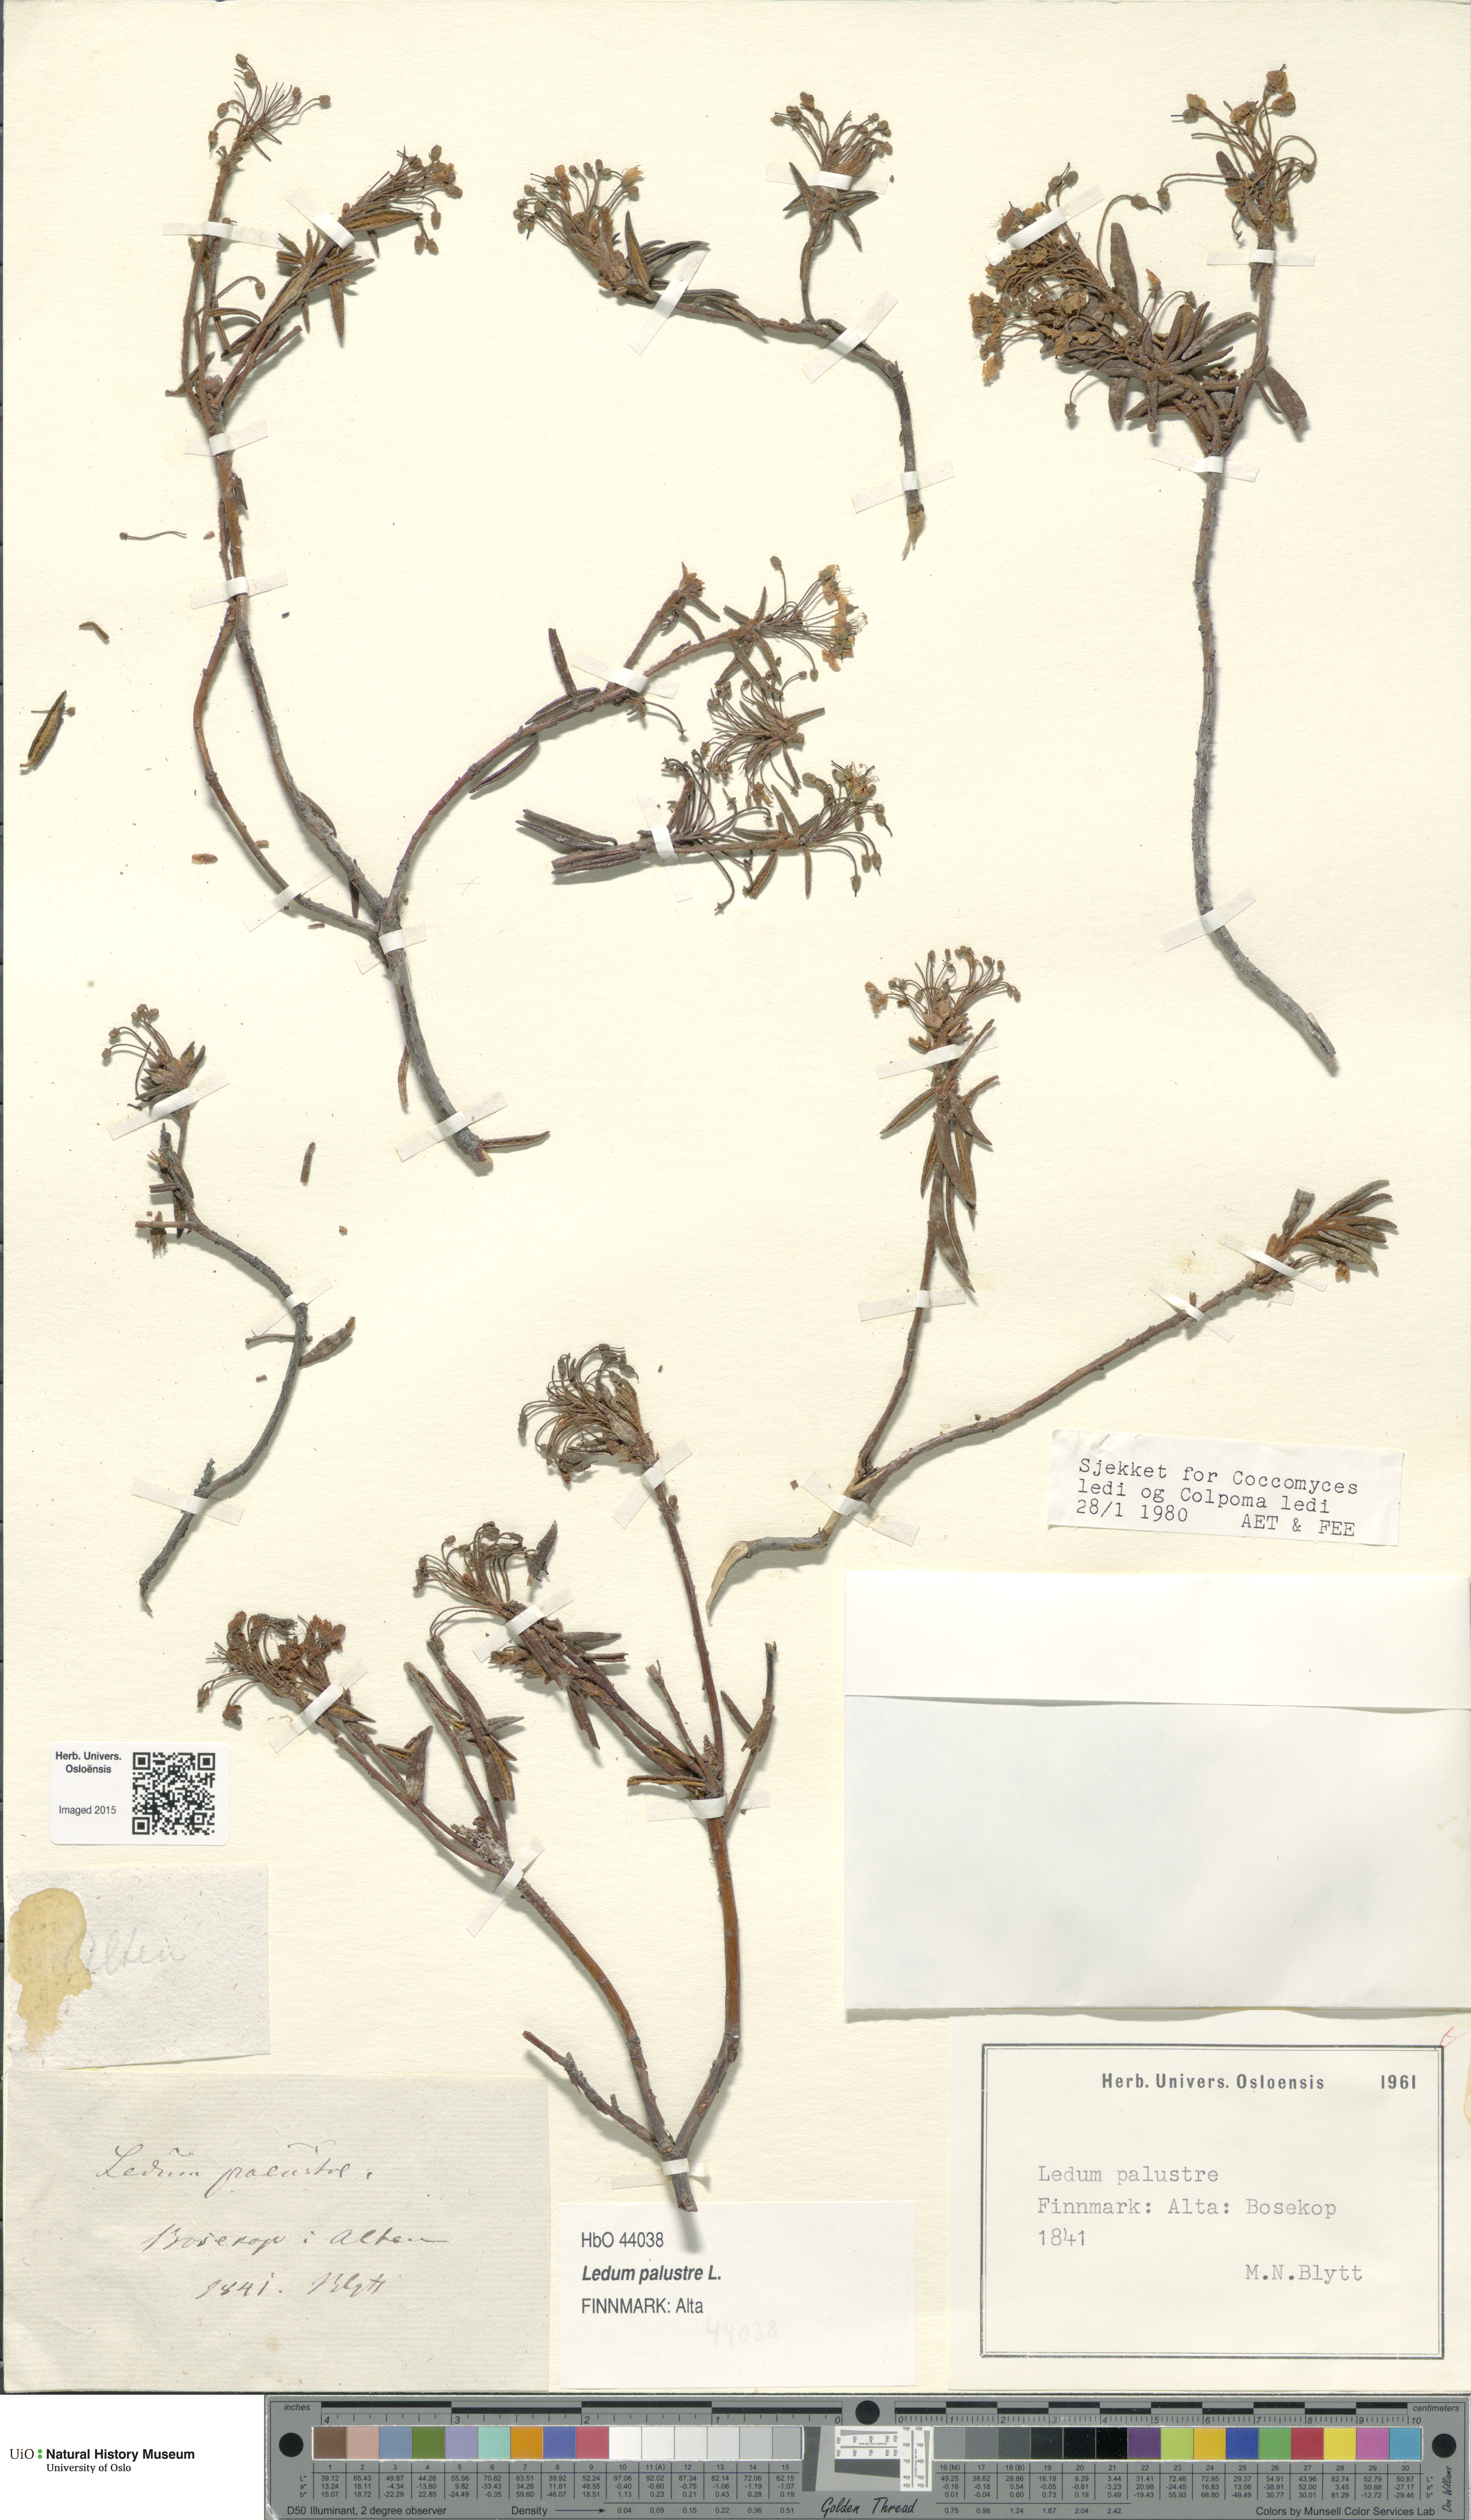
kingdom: Plantae
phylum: Tracheophyta
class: Magnoliopsida
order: Ericales
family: Ericaceae
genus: Rhododendron
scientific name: Rhododendron tomentosum
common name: Marsh labrador tea
